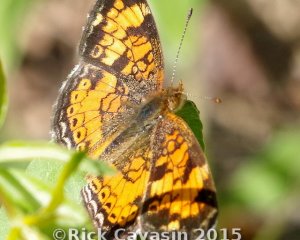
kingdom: Animalia
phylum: Arthropoda
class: Insecta
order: Lepidoptera
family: Nymphalidae
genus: Phyciodes
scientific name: Phyciodes tharos
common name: Pearl Crescent
